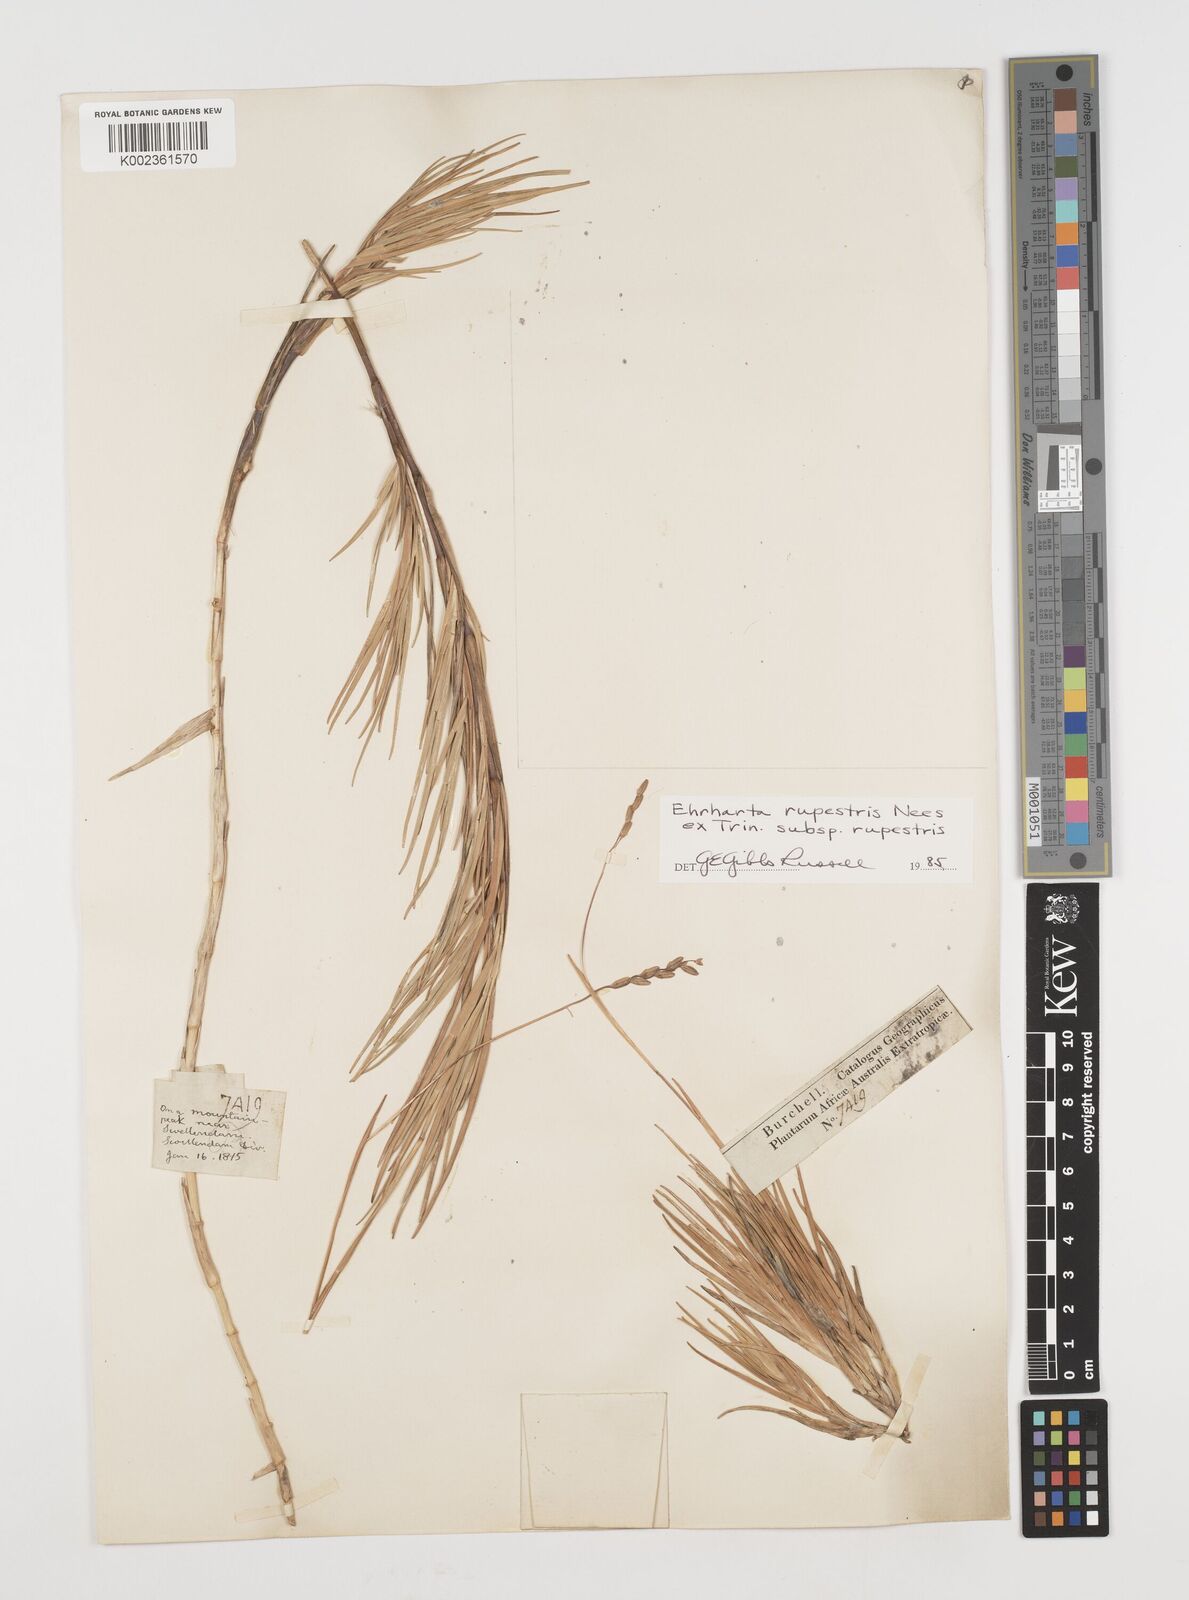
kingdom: Plantae
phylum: Tracheophyta
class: Liliopsida
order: Poales
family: Poaceae
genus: Ehrharta
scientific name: Ehrharta rupestris
